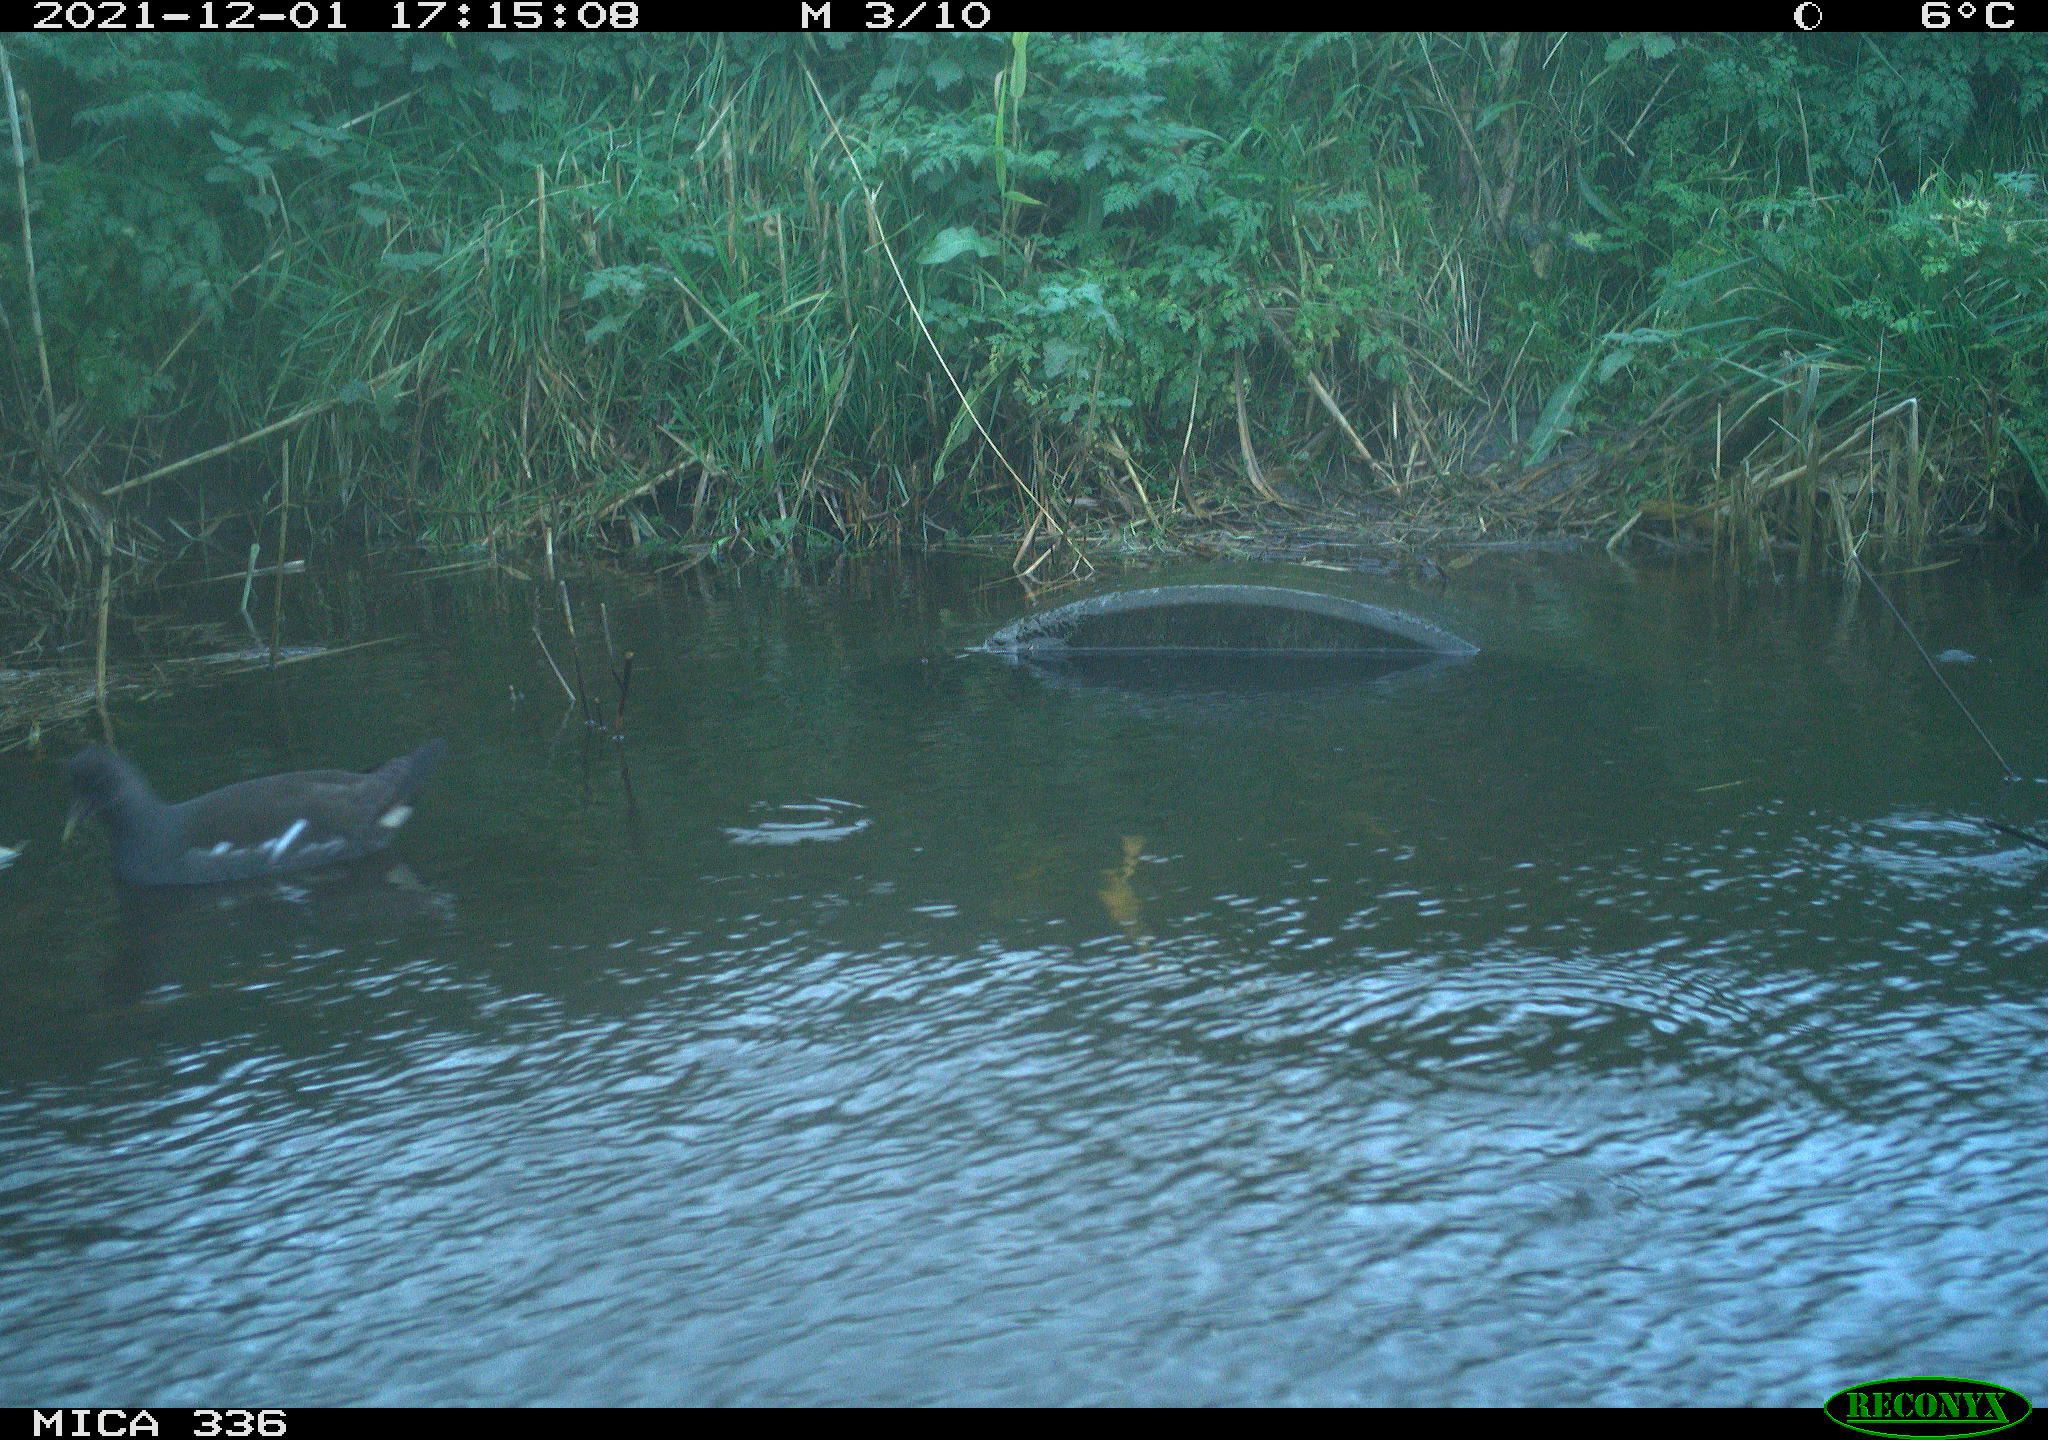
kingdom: Animalia
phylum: Chordata
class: Aves
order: Gruiformes
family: Rallidae
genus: Gallinula
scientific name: Gallinula chloropus
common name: Common moorhen
